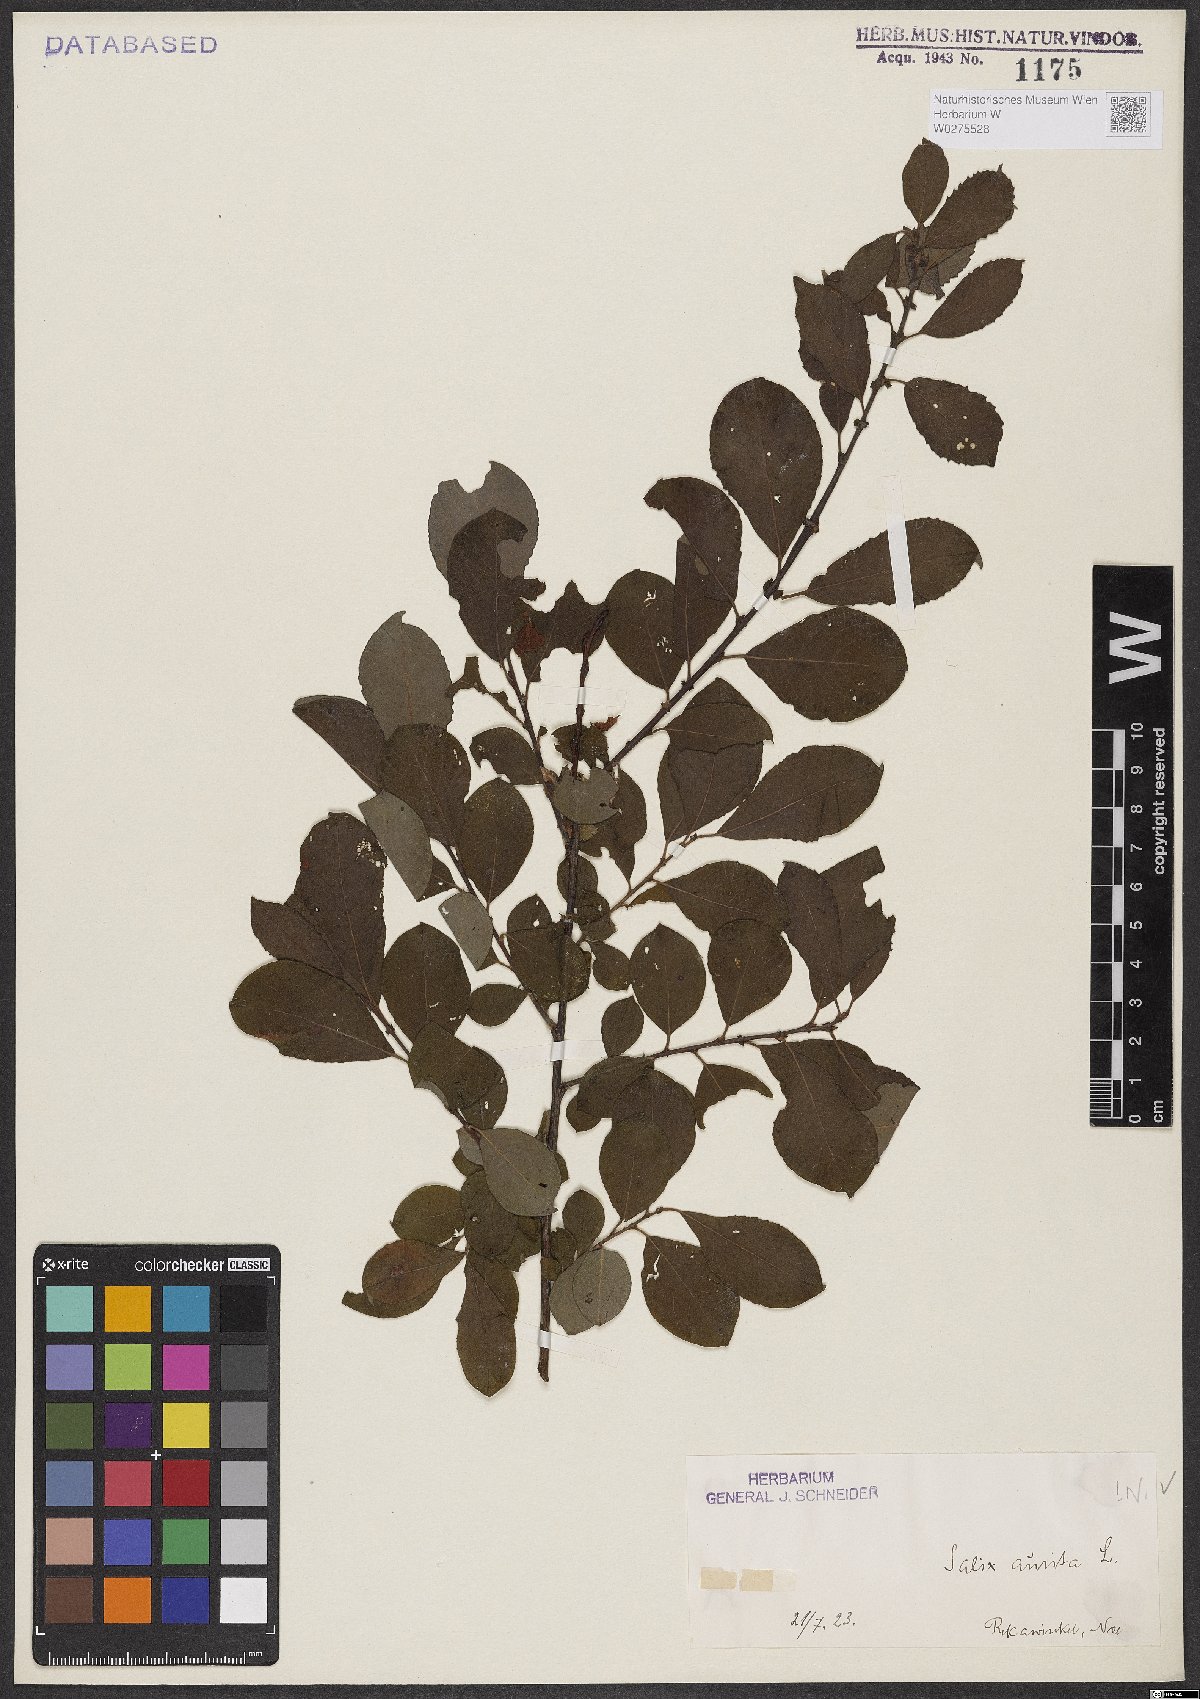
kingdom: Plantae
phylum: Tracheophyta
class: Magnoliopsida
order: Malpighiales
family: Salicaceae
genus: Salix
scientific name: Salix aurita
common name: Eared willow
